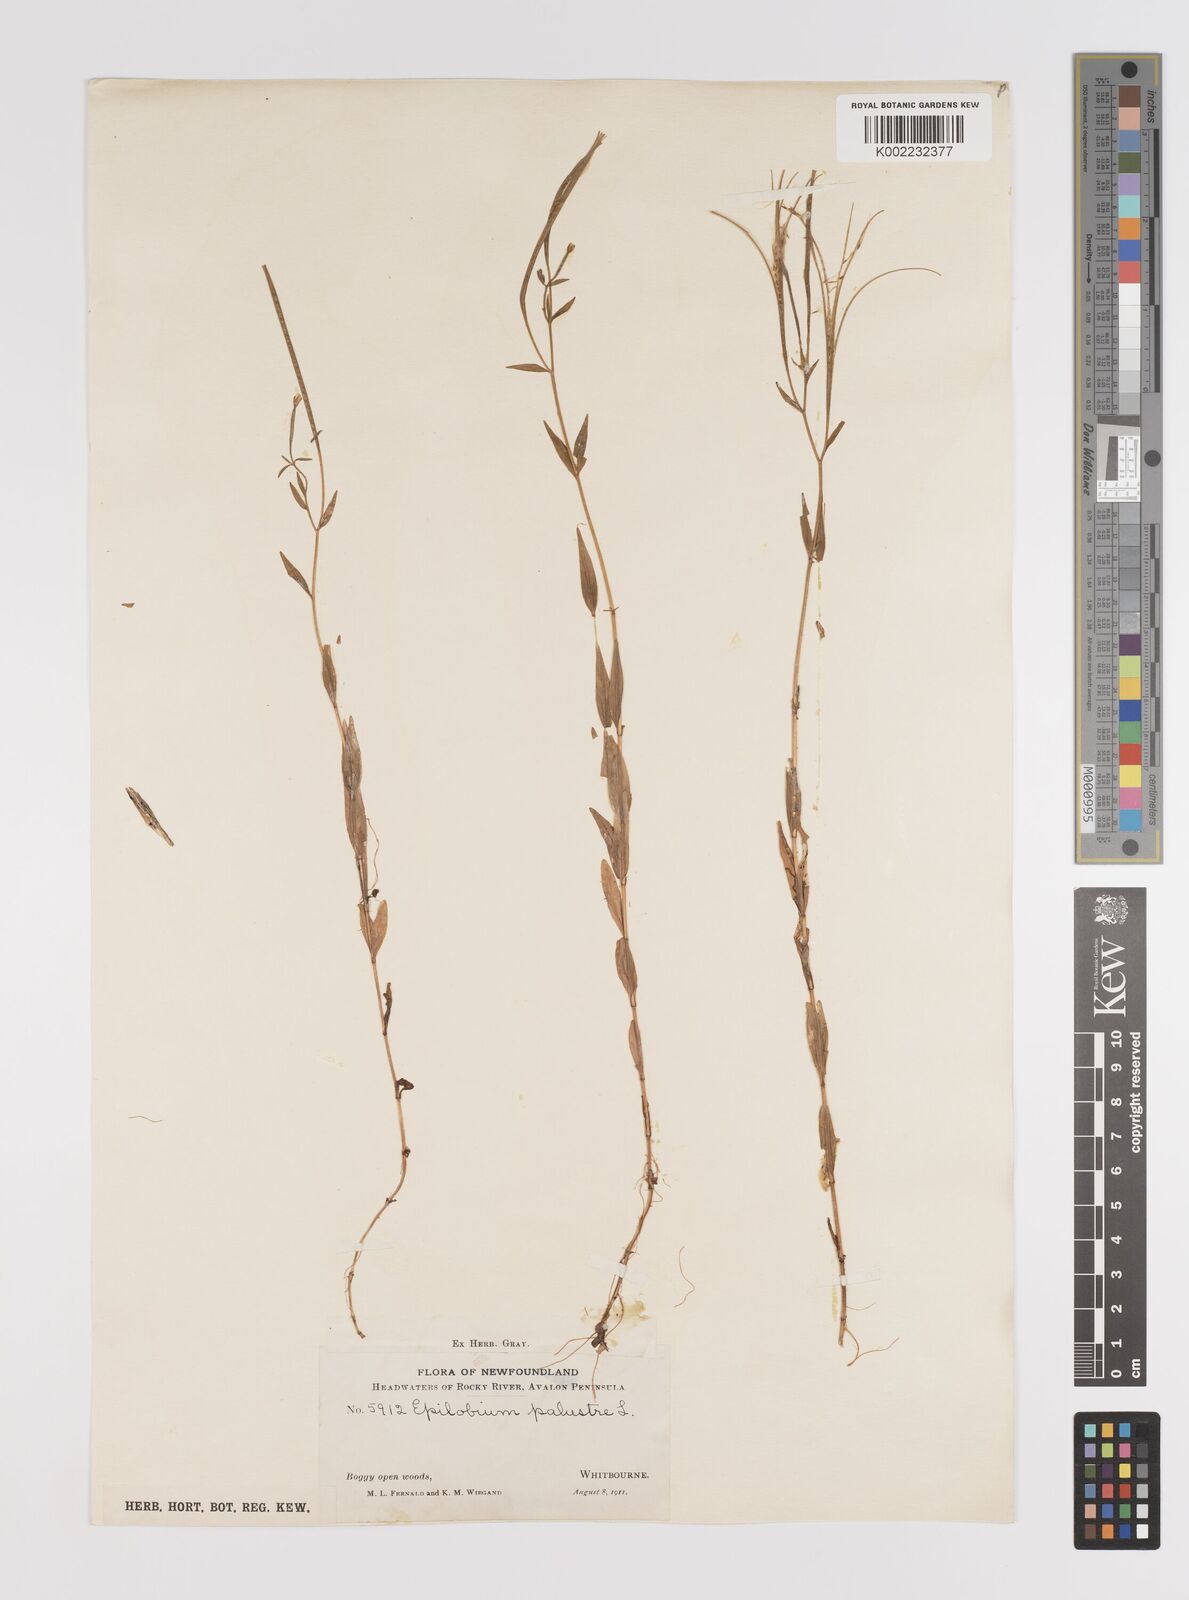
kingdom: Plantae
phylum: Tracheophyta
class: Magnoliopsida
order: Myrtales
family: Onagraceae
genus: Epilobium
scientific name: Epilobium palustre
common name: Marsh willowherb
